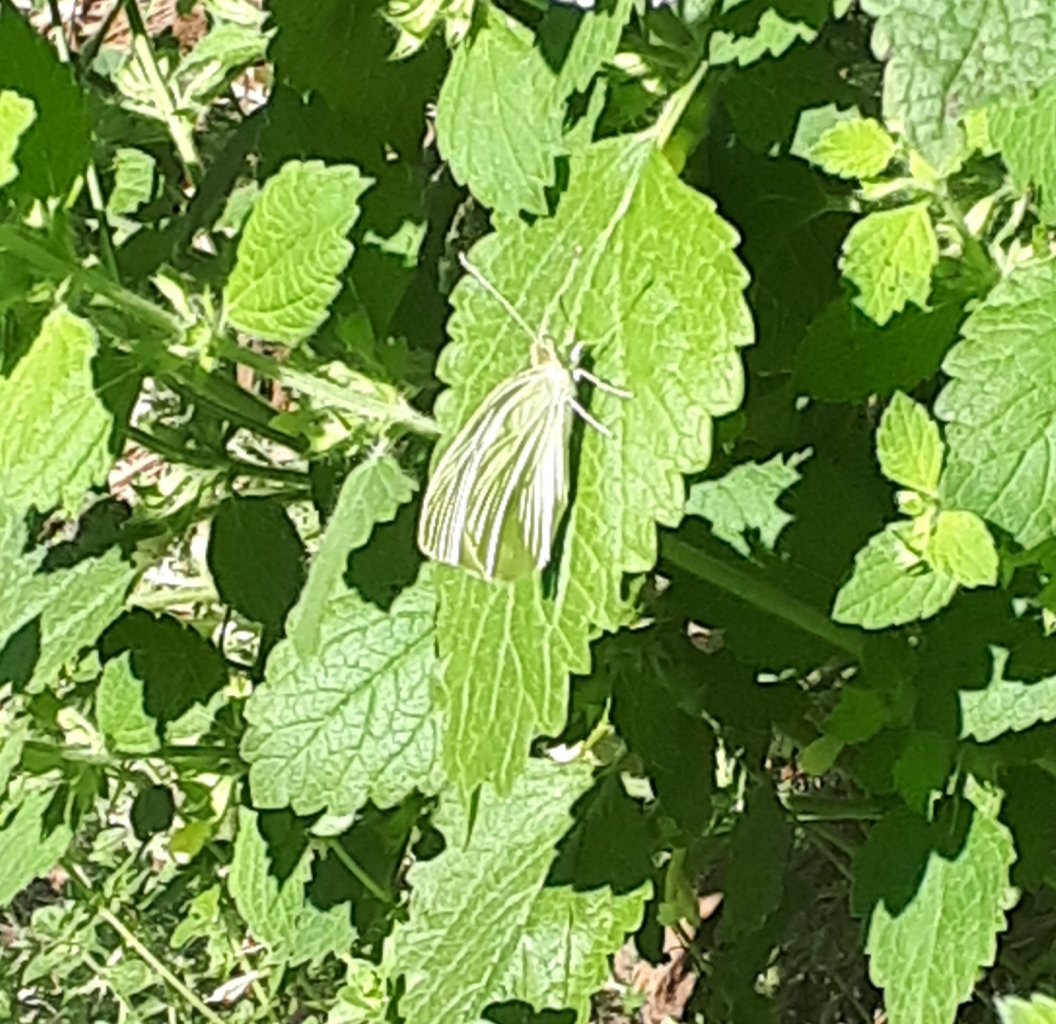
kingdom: Animalia
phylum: Arthropoda
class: Insecta
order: Lepidoptera
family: Pieridae
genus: Pieris
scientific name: Pieris rapae
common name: Cabbage White
